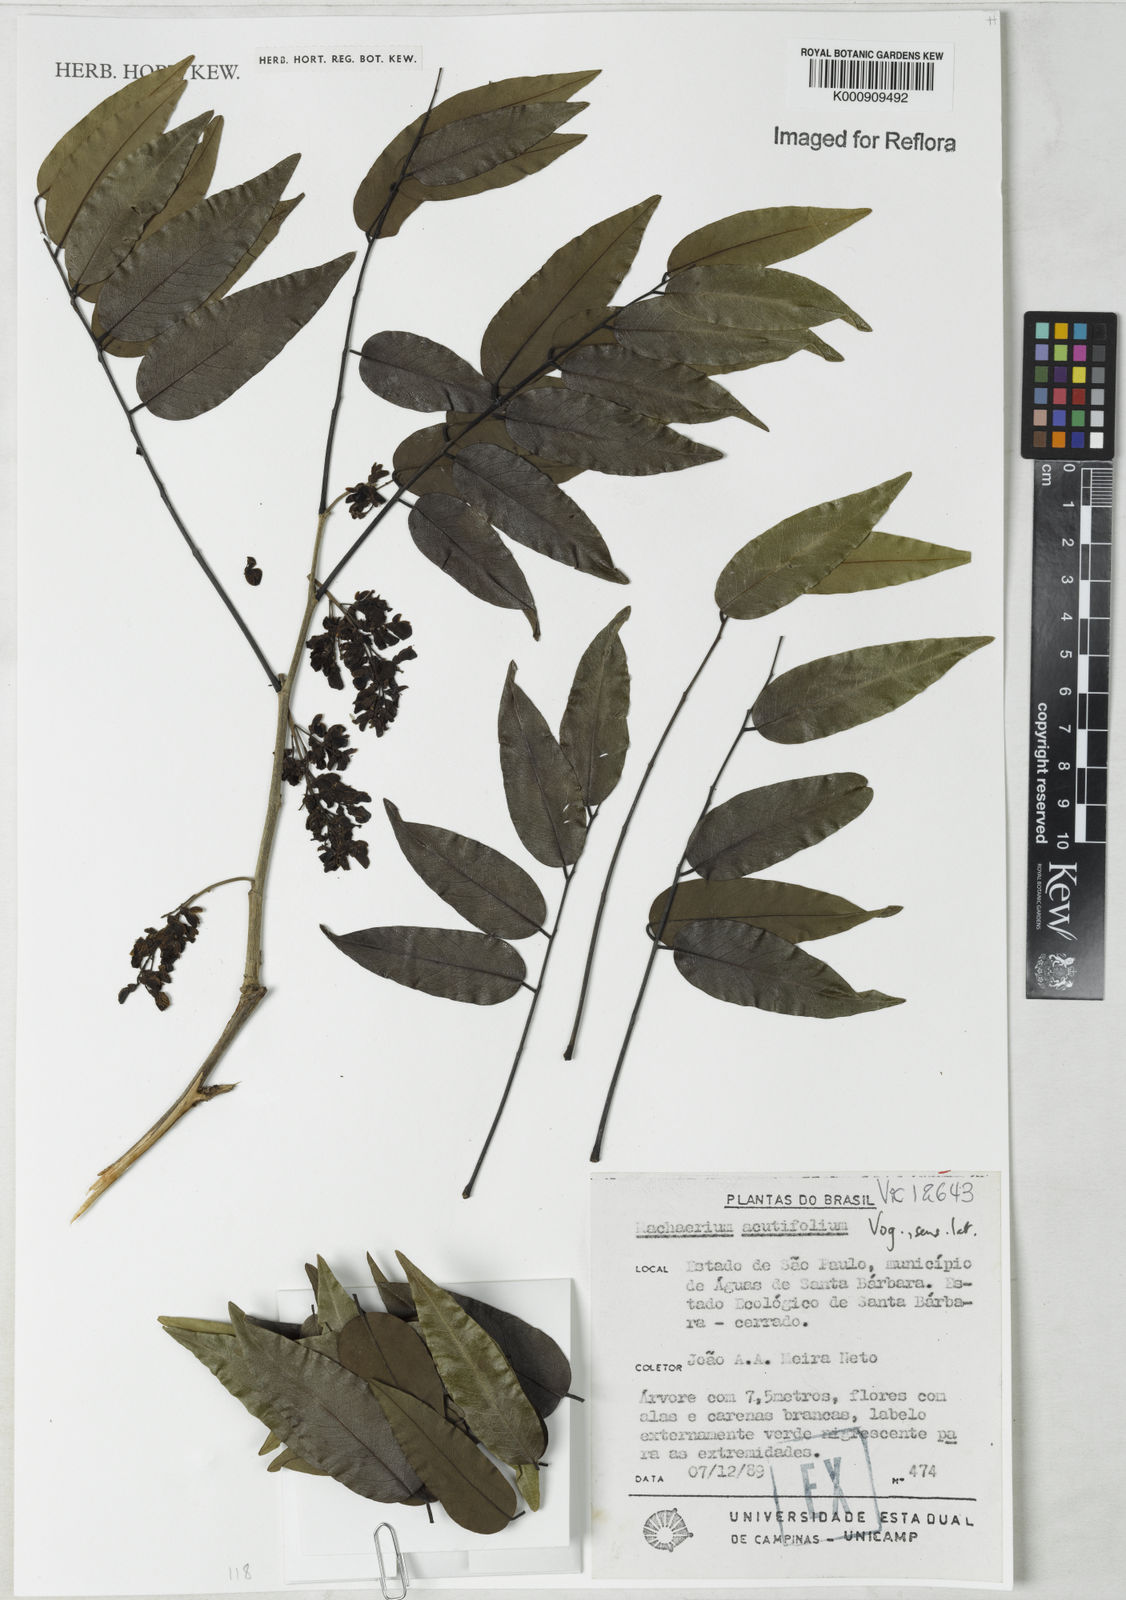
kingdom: Plantae
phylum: Tracheophyta
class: Magnoliopsida
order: Fabales
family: Fabaceae
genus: Machaerium
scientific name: Machaerium acutifolium
